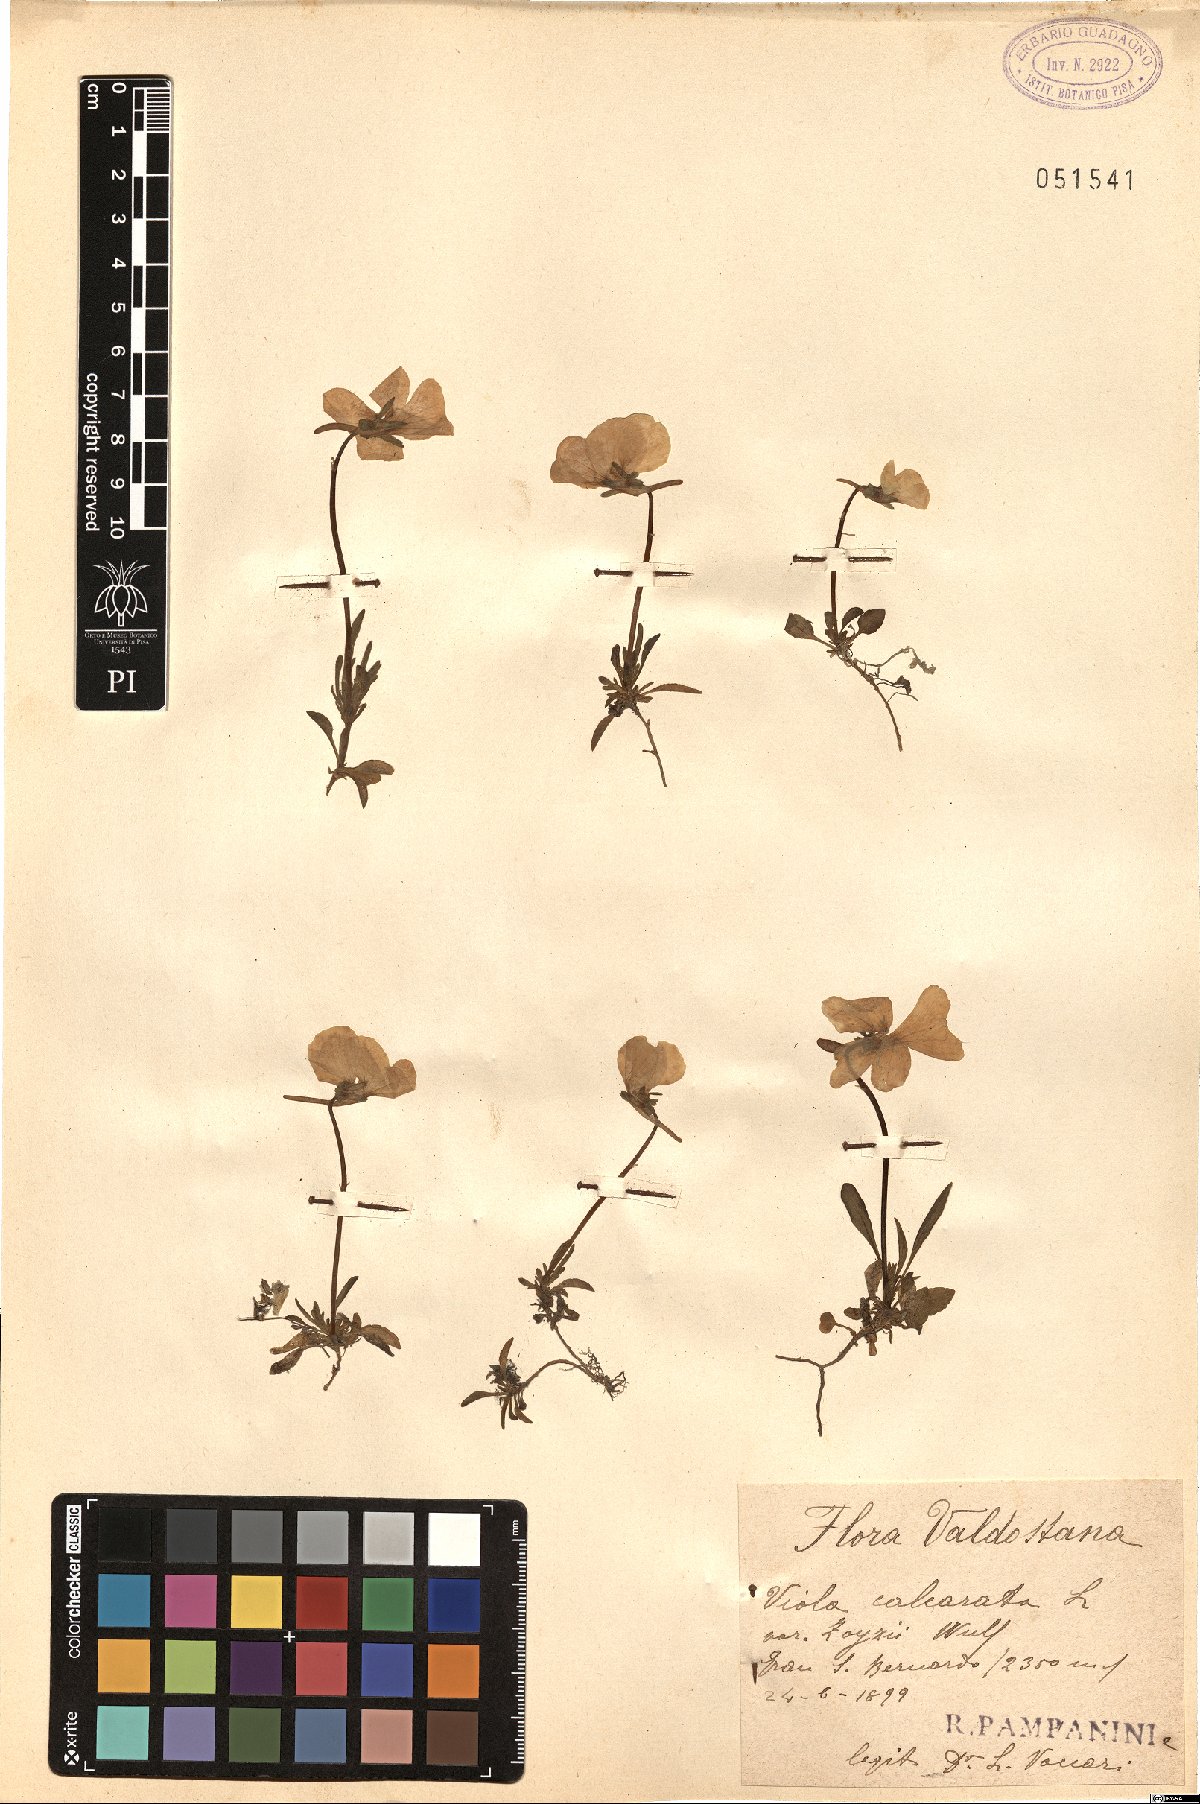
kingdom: Plantae
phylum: Tracheophyta
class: Magnoliopsida
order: Malpighiales
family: Violaceae
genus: Viola
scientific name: Viola calcarata
